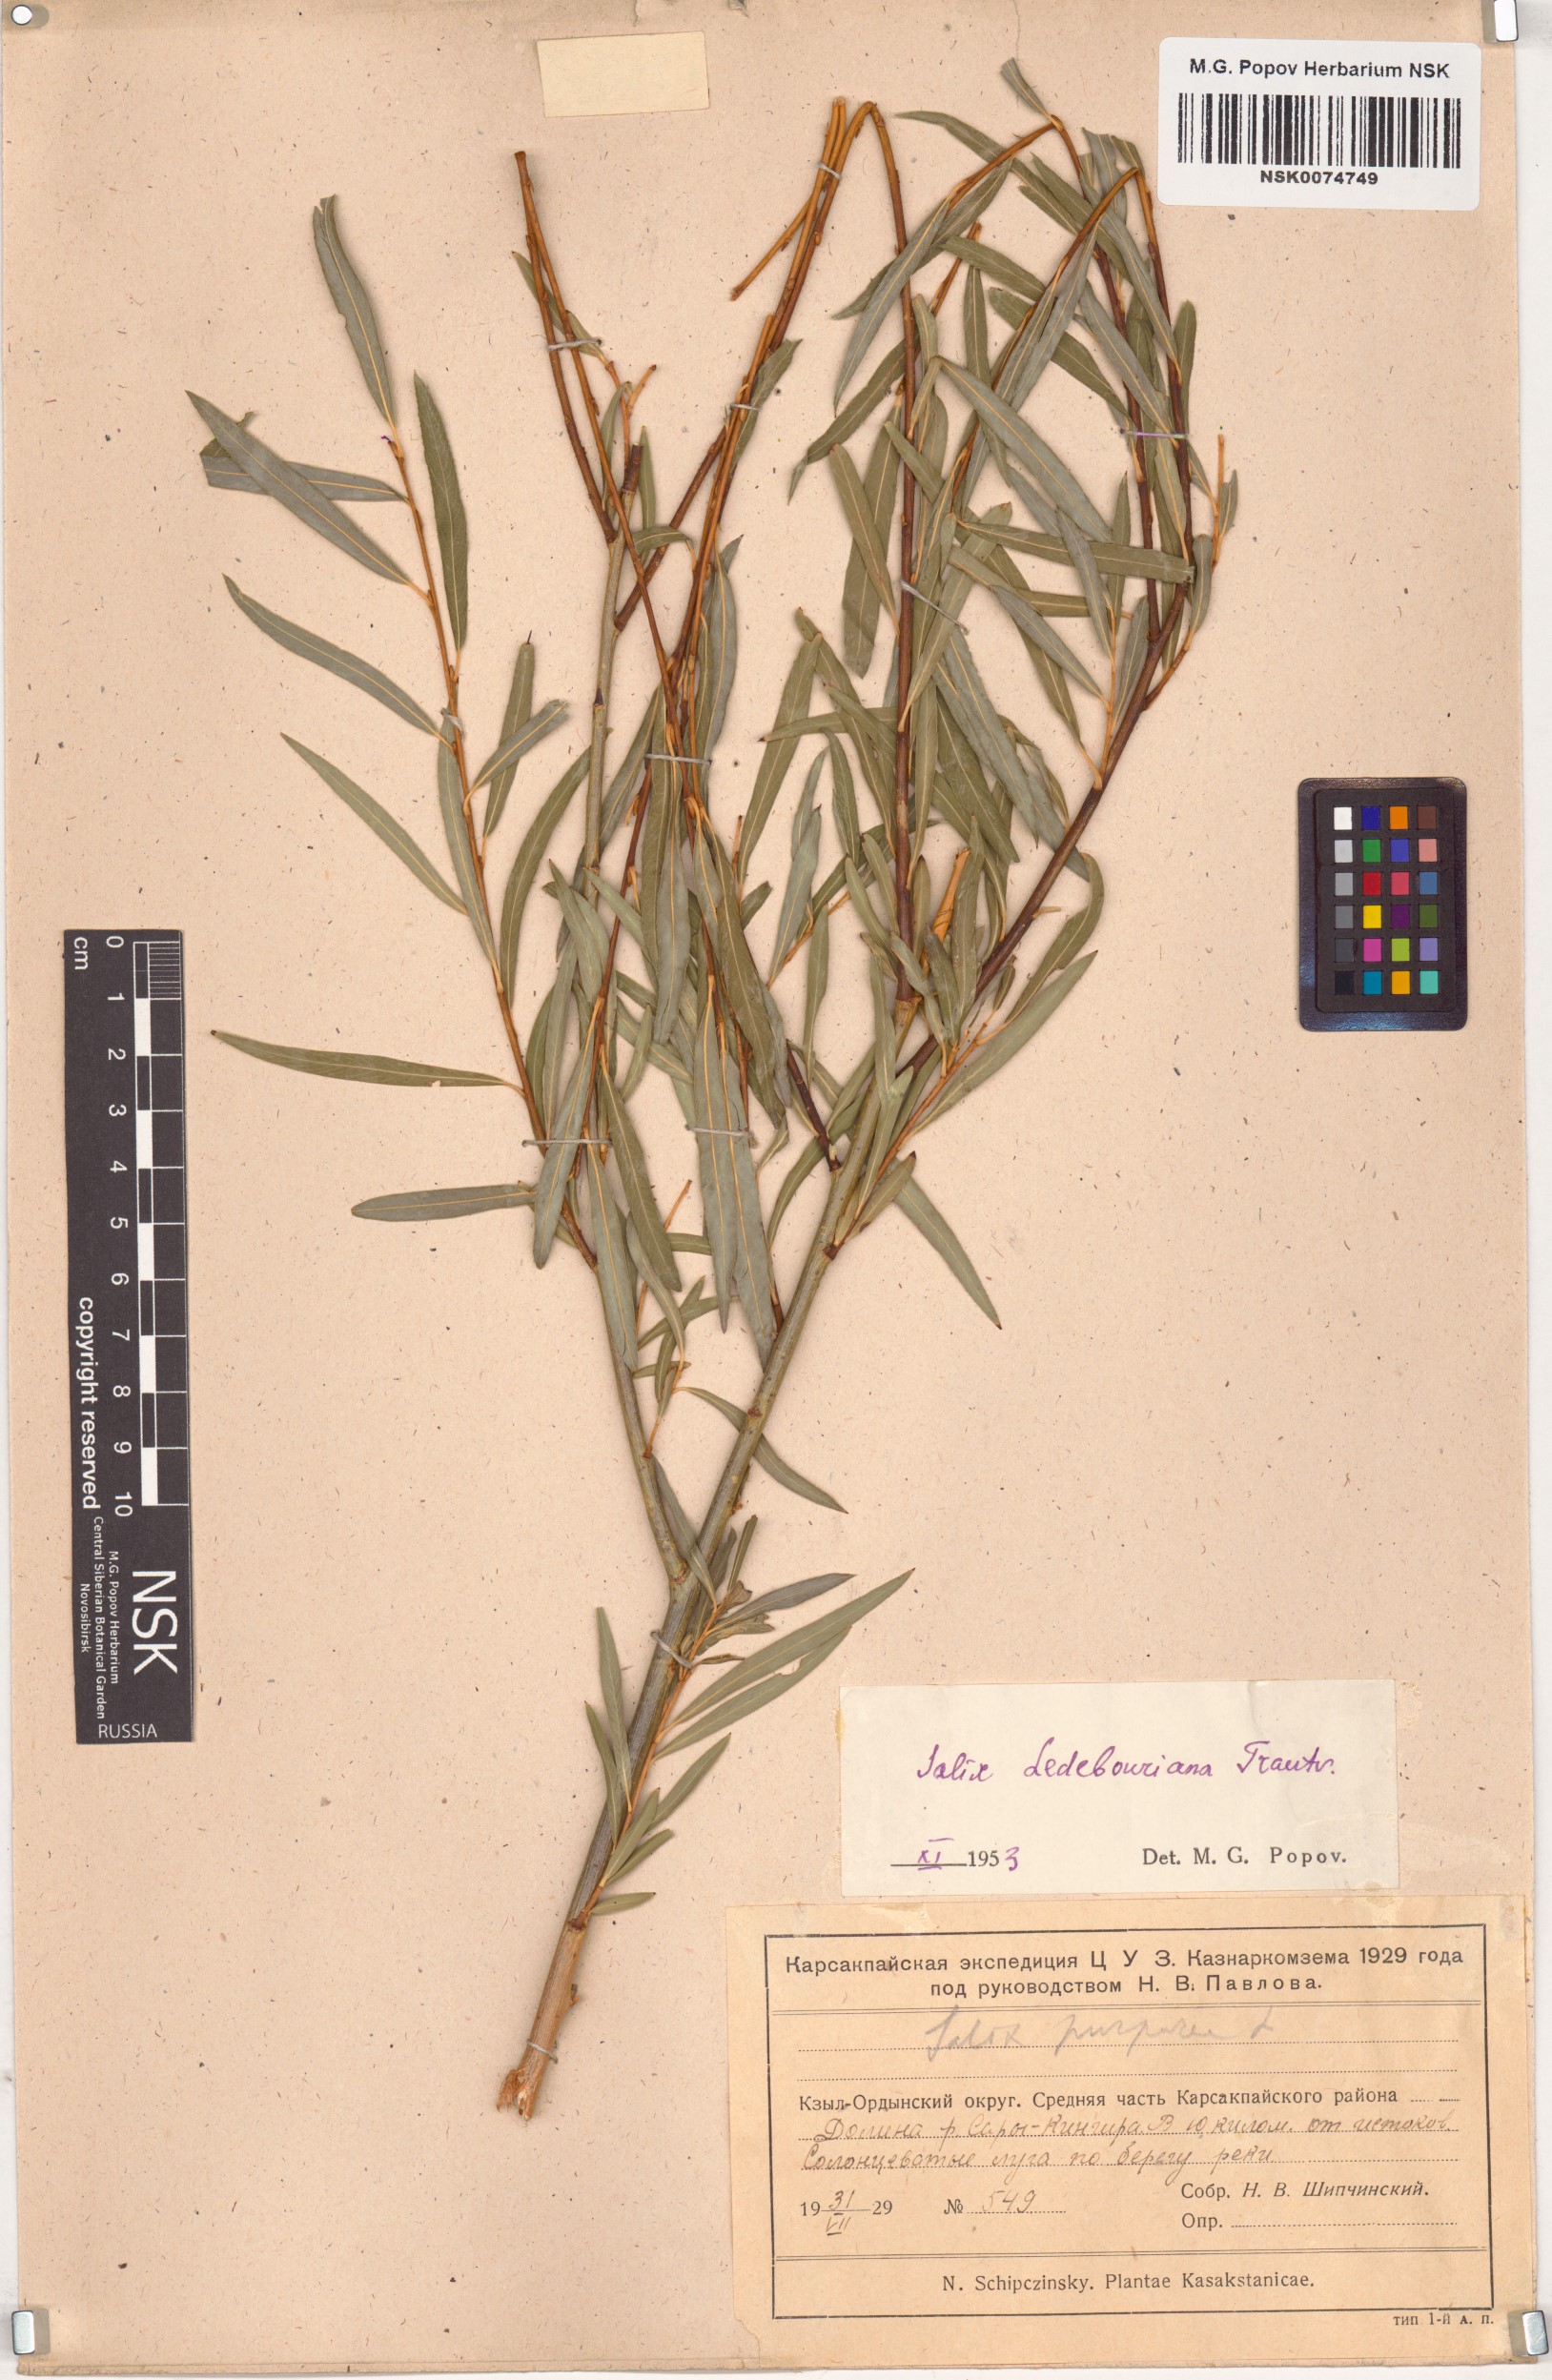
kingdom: Plantae
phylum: Tracheophyta
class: Magnoliopsida
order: Malpighiales
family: Salicaceae
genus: Salix
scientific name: Salix ledebouriana
